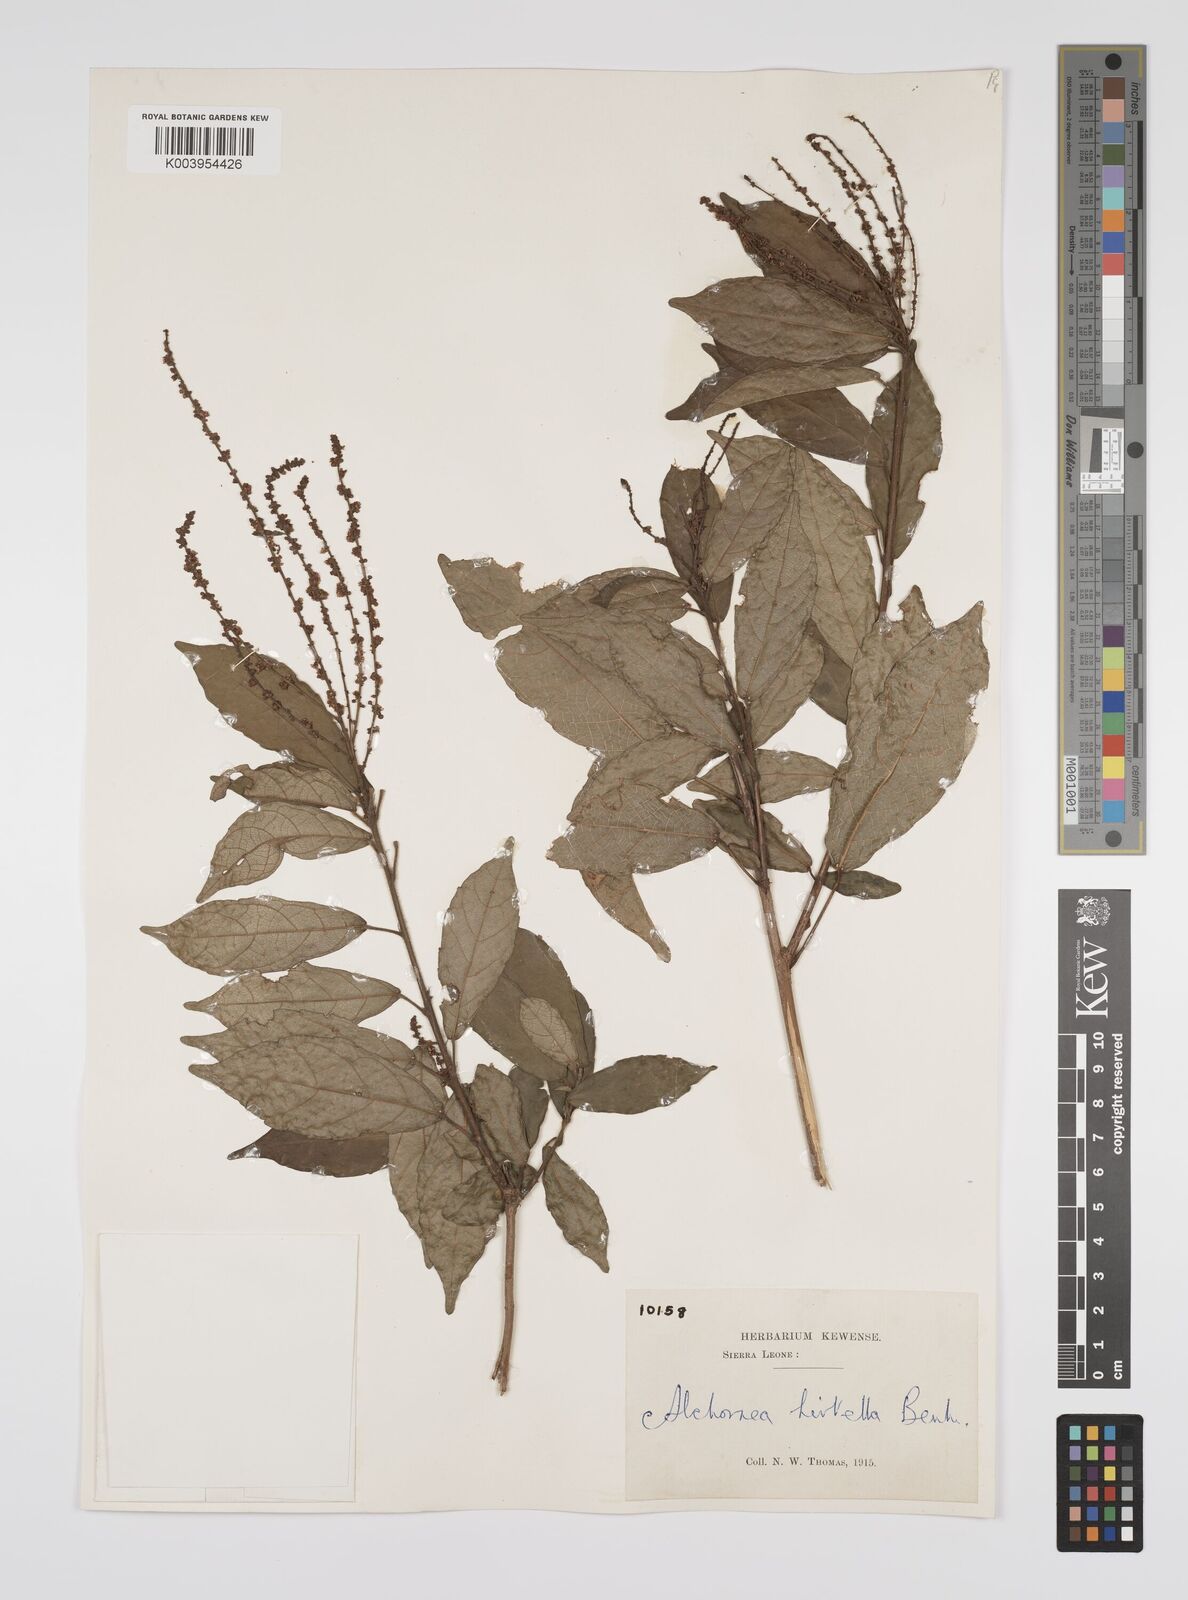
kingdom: Plantae
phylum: Tracheophyta
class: Magnoliopsida
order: Malpighiales
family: Euphorbiaceae
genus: Alchornea
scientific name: Alchornea hirtella
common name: Forest bead-string
